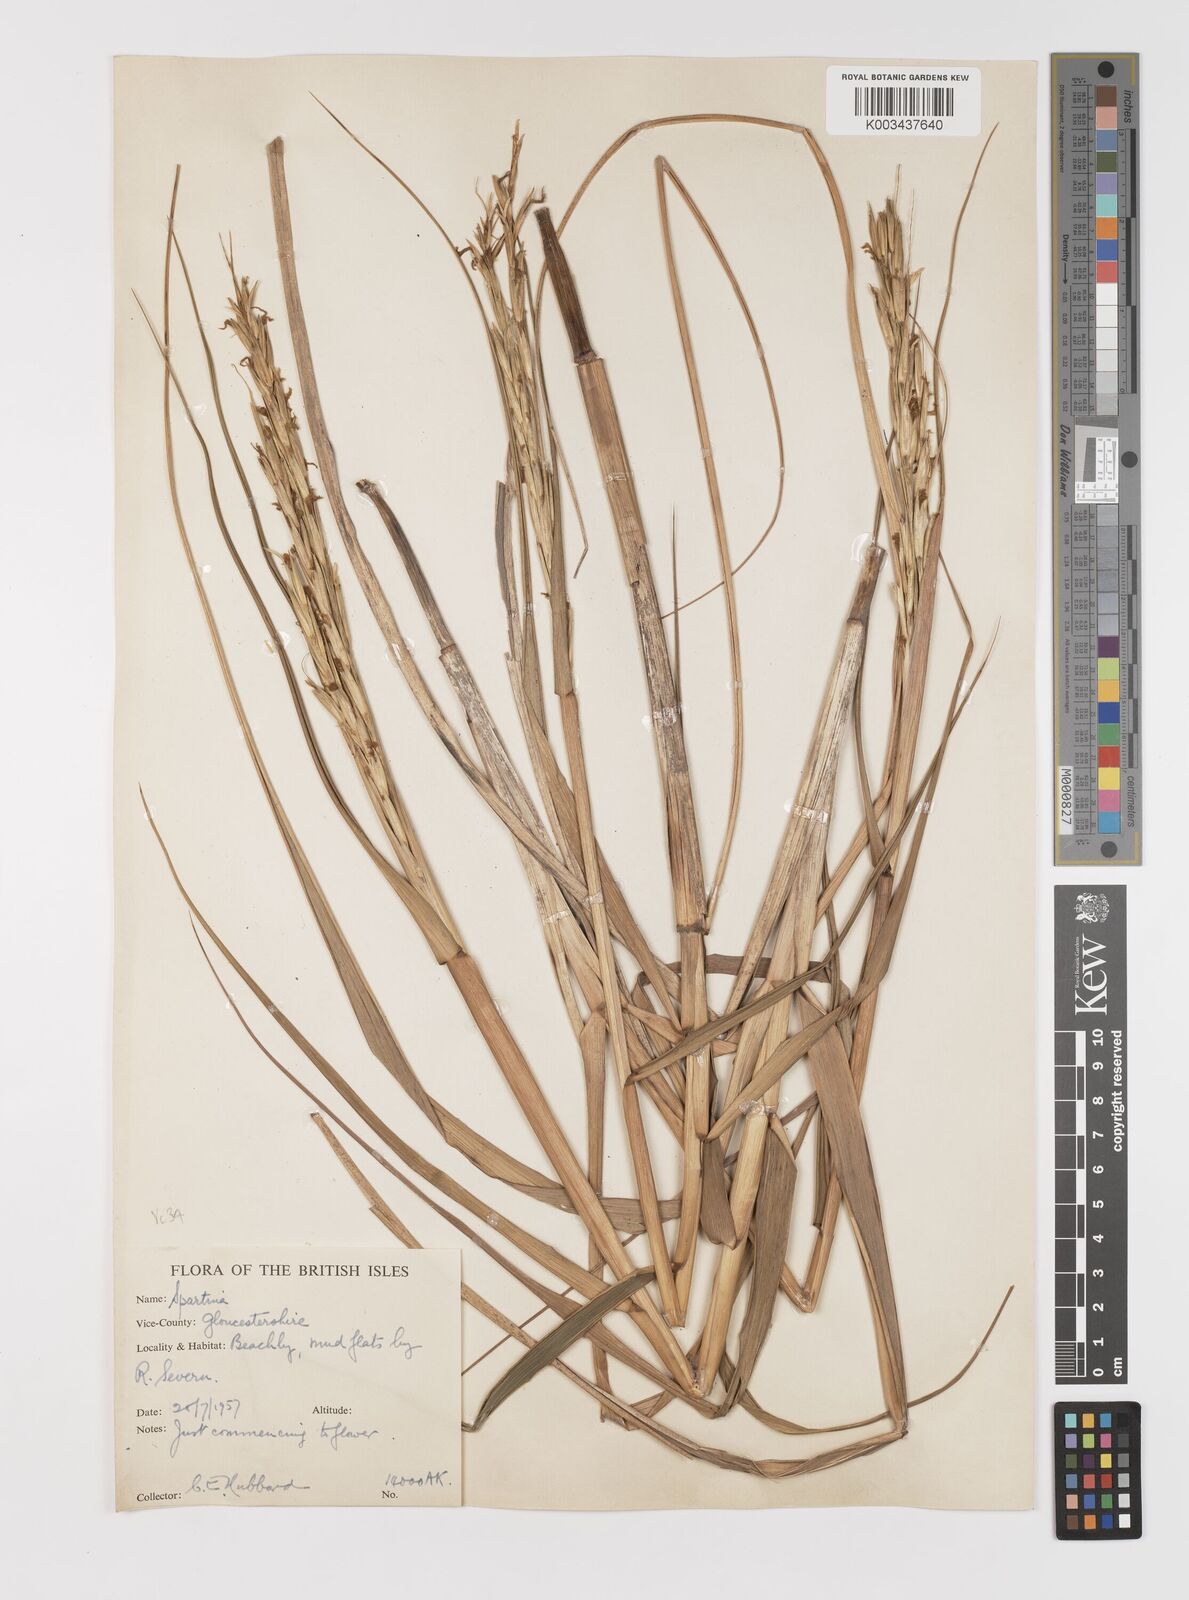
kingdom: Plantae
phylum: Tracheophyta
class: Liliopsida
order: Poales
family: Poaceae
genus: Sporobolus
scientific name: Sporobolus anglicus
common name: English cordgrass
